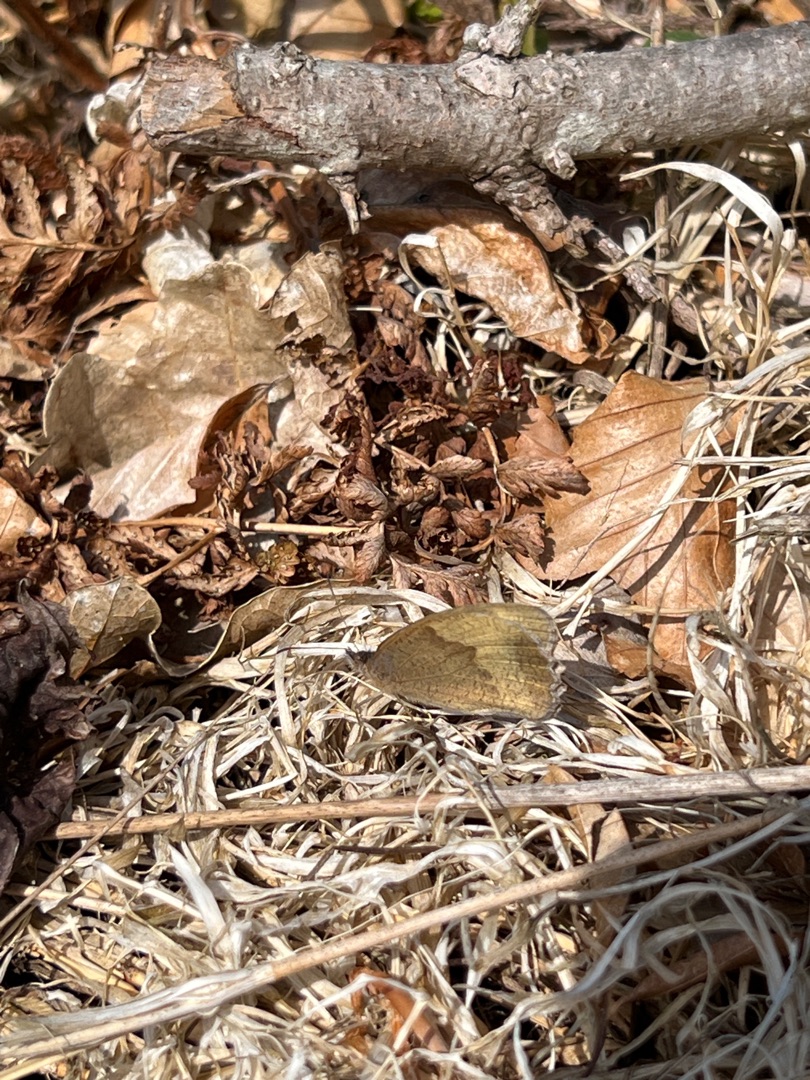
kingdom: Animalia
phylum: Arthropoda
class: Insecta
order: Lepidoptera
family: Nymphalidae
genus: Maniola
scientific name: Maniola jurtina
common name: Græsrandøje
